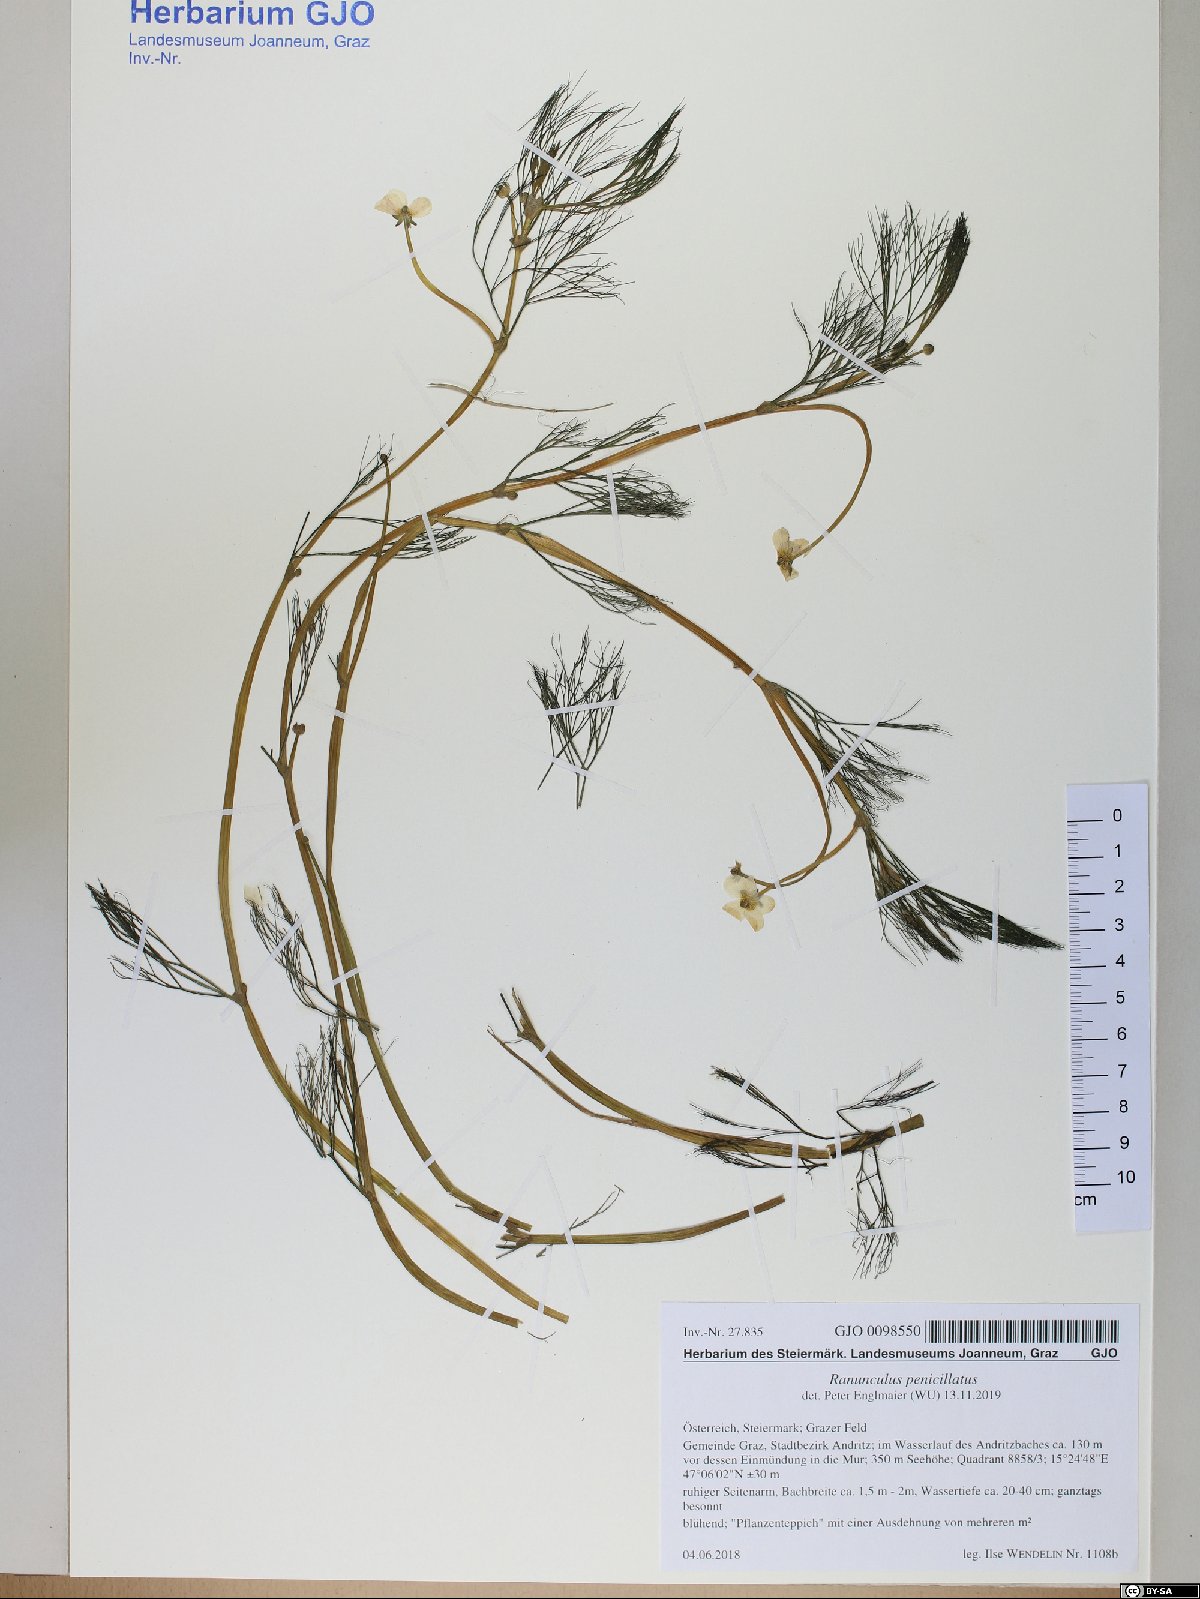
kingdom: Plantae
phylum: Tracheophyta
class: Magnoliopsida
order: Ranunculales
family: Ranunculaceae
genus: Ranunculus
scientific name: Ranunculus penicillatus
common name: Stream water-crowfoot
